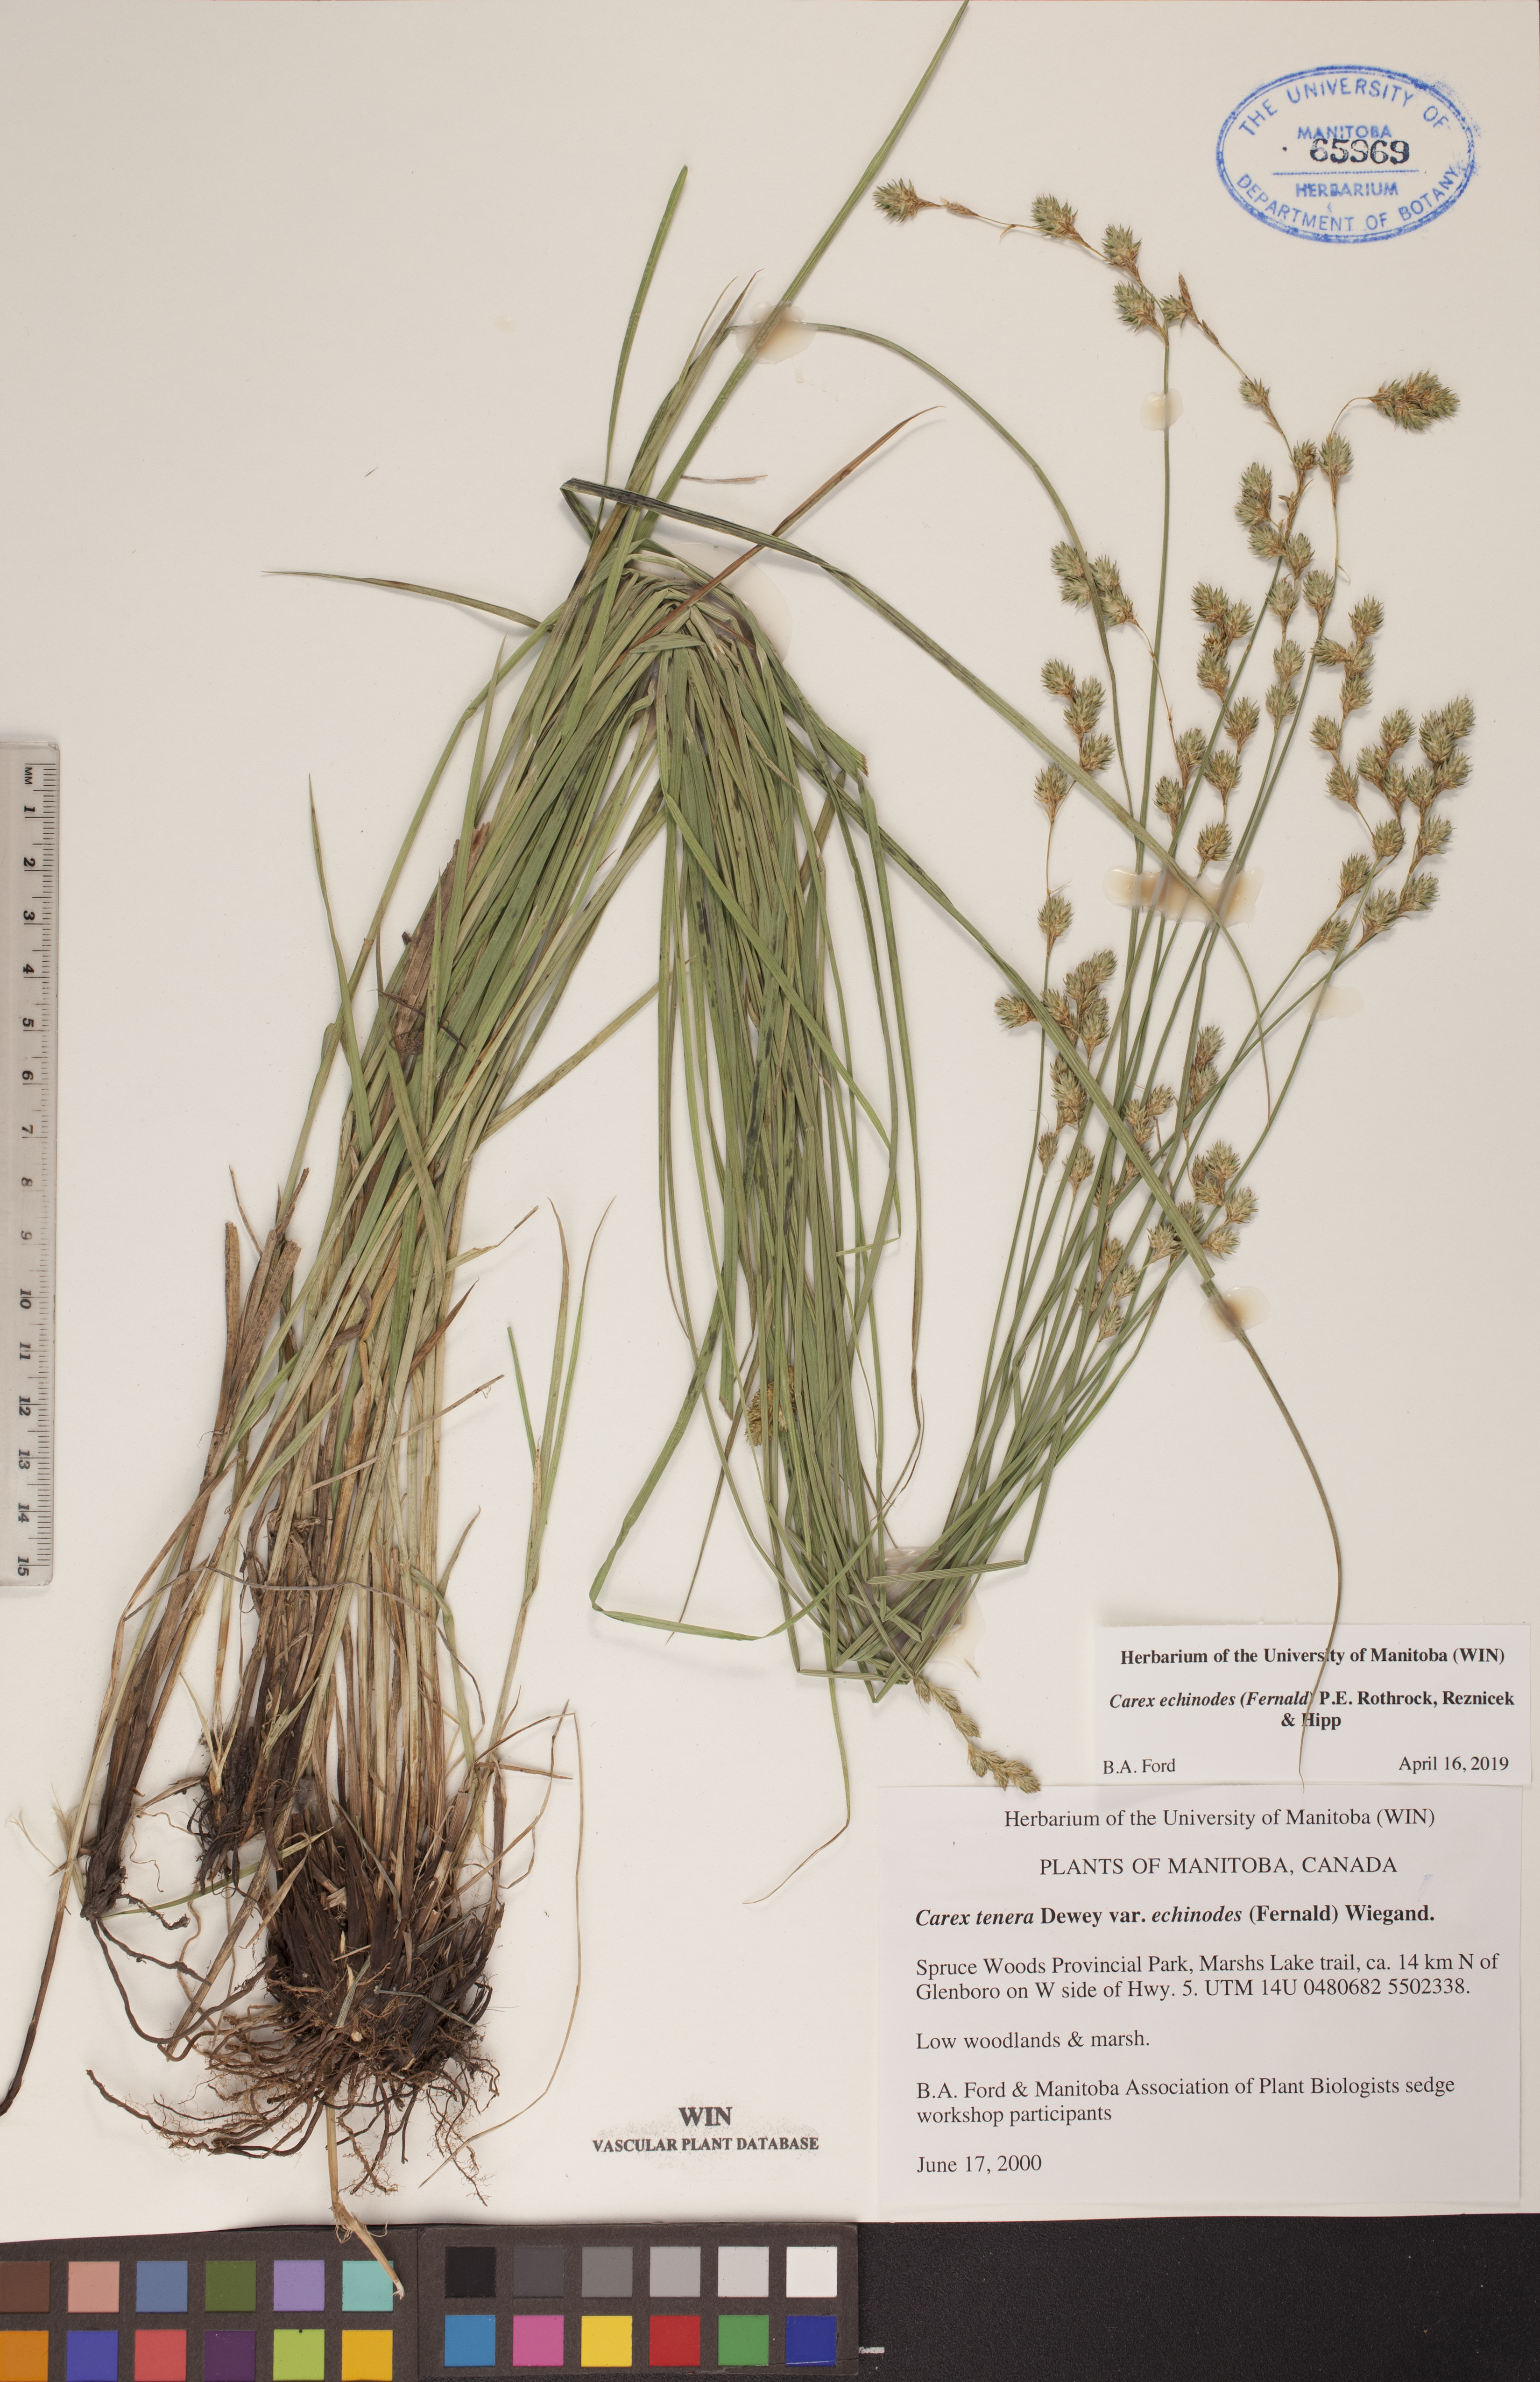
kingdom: Plantae
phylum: Tracheophyta
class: Liliopsida
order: Poales
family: Cyperaceae
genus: Carex
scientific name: Carex echinodes
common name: Marsh straw sedge
